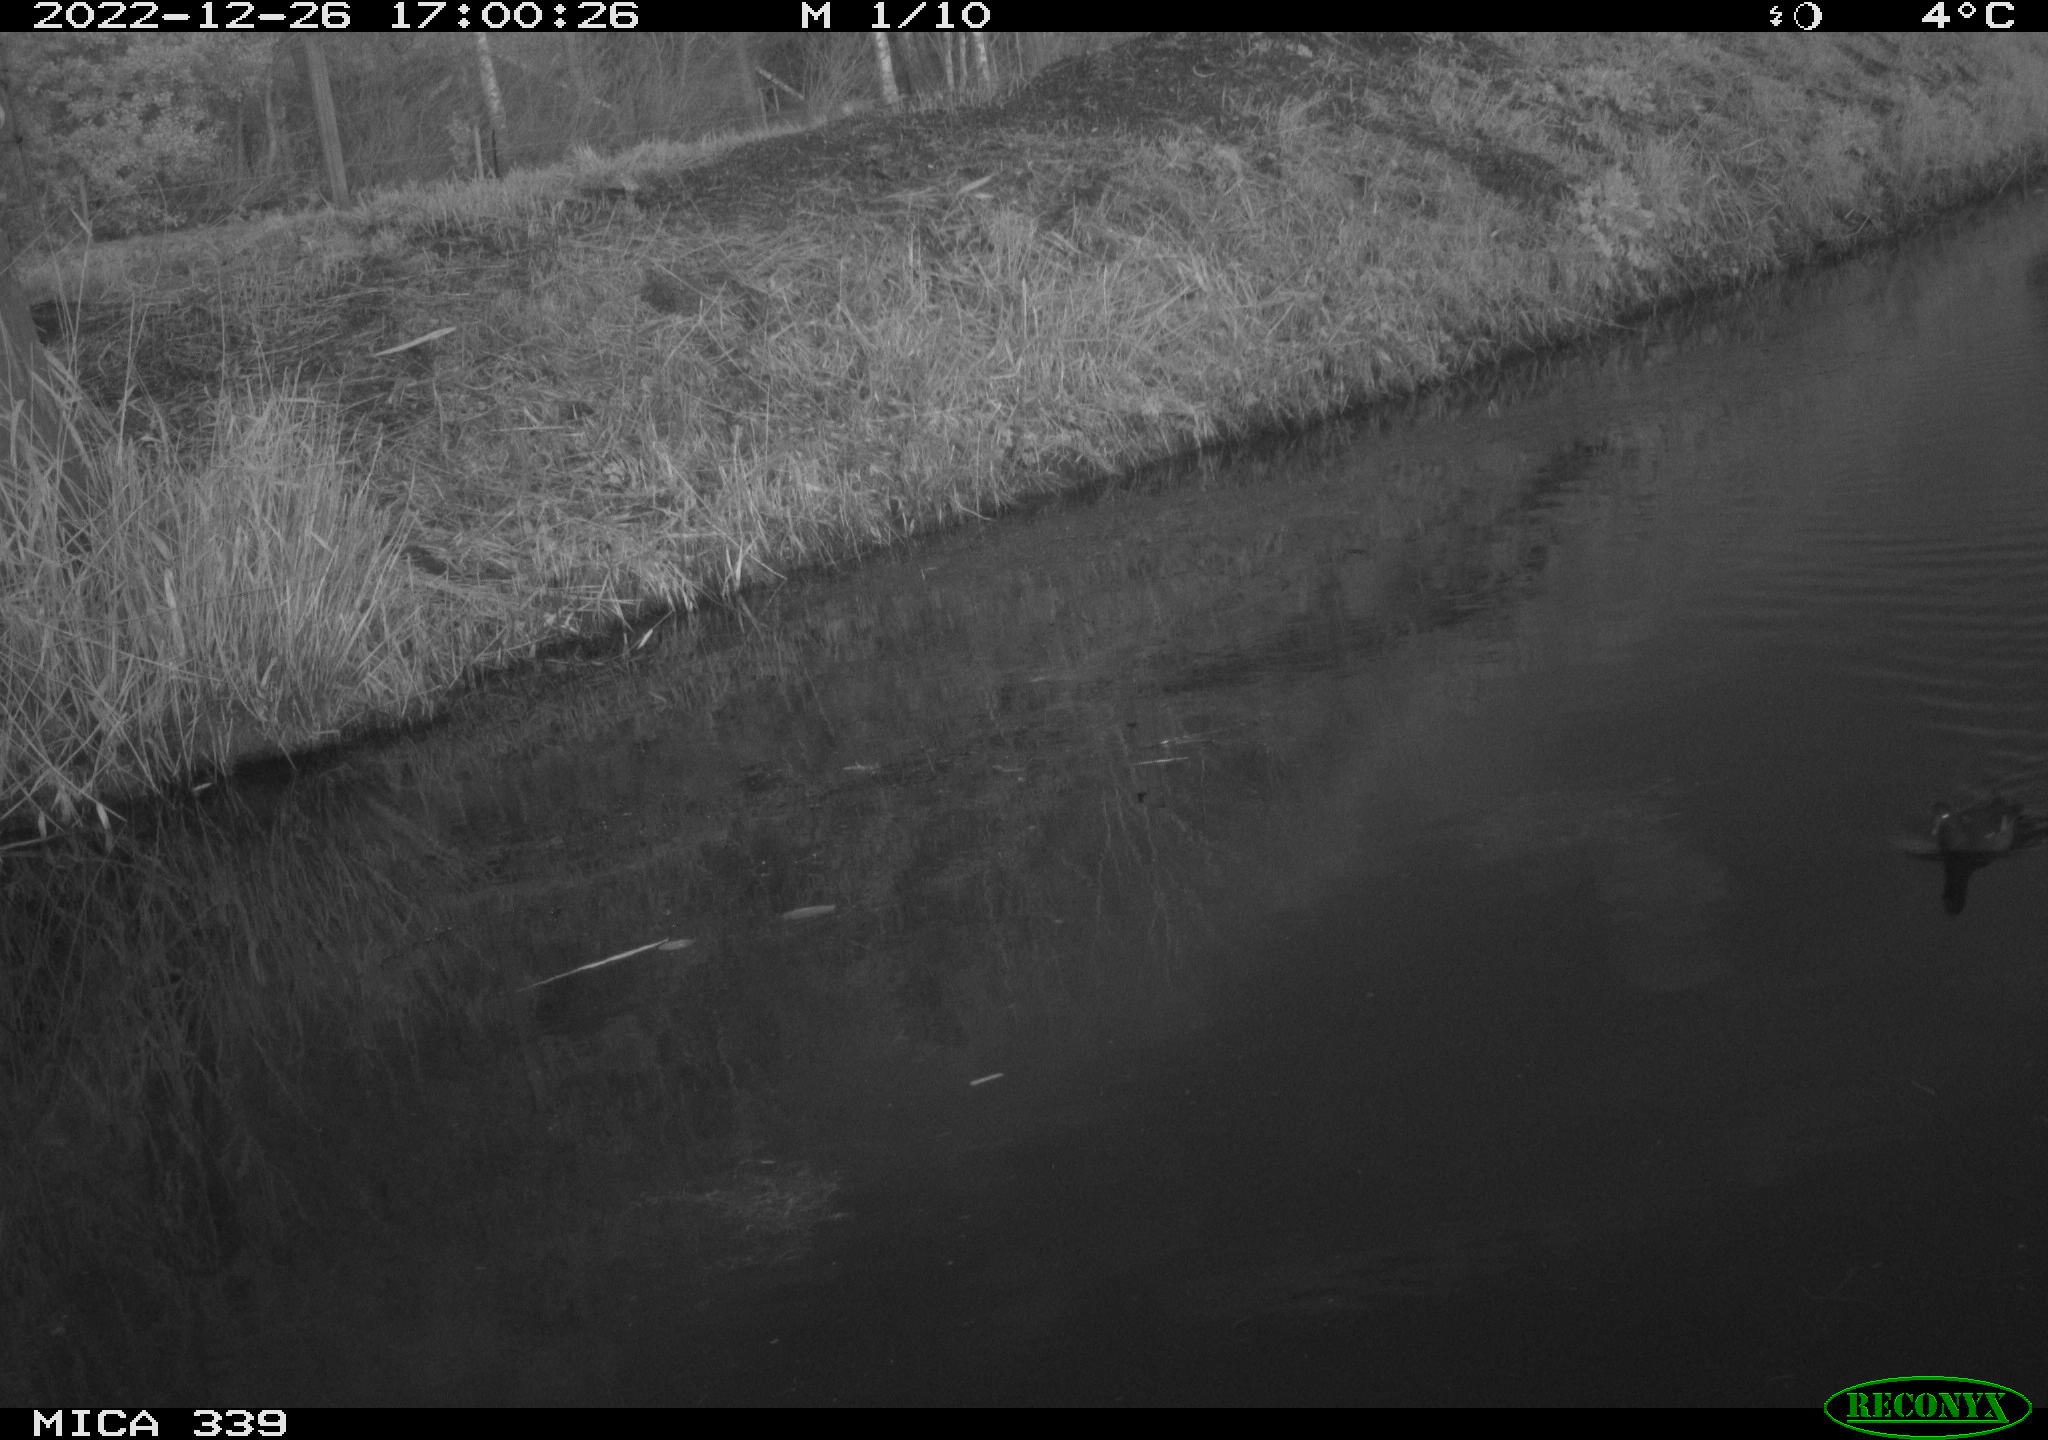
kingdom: Animalia
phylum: Chordata
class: Aves
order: Gruiformes
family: Rallidae
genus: Gallinula
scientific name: Gallinula chloropus
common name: Common moorhen
